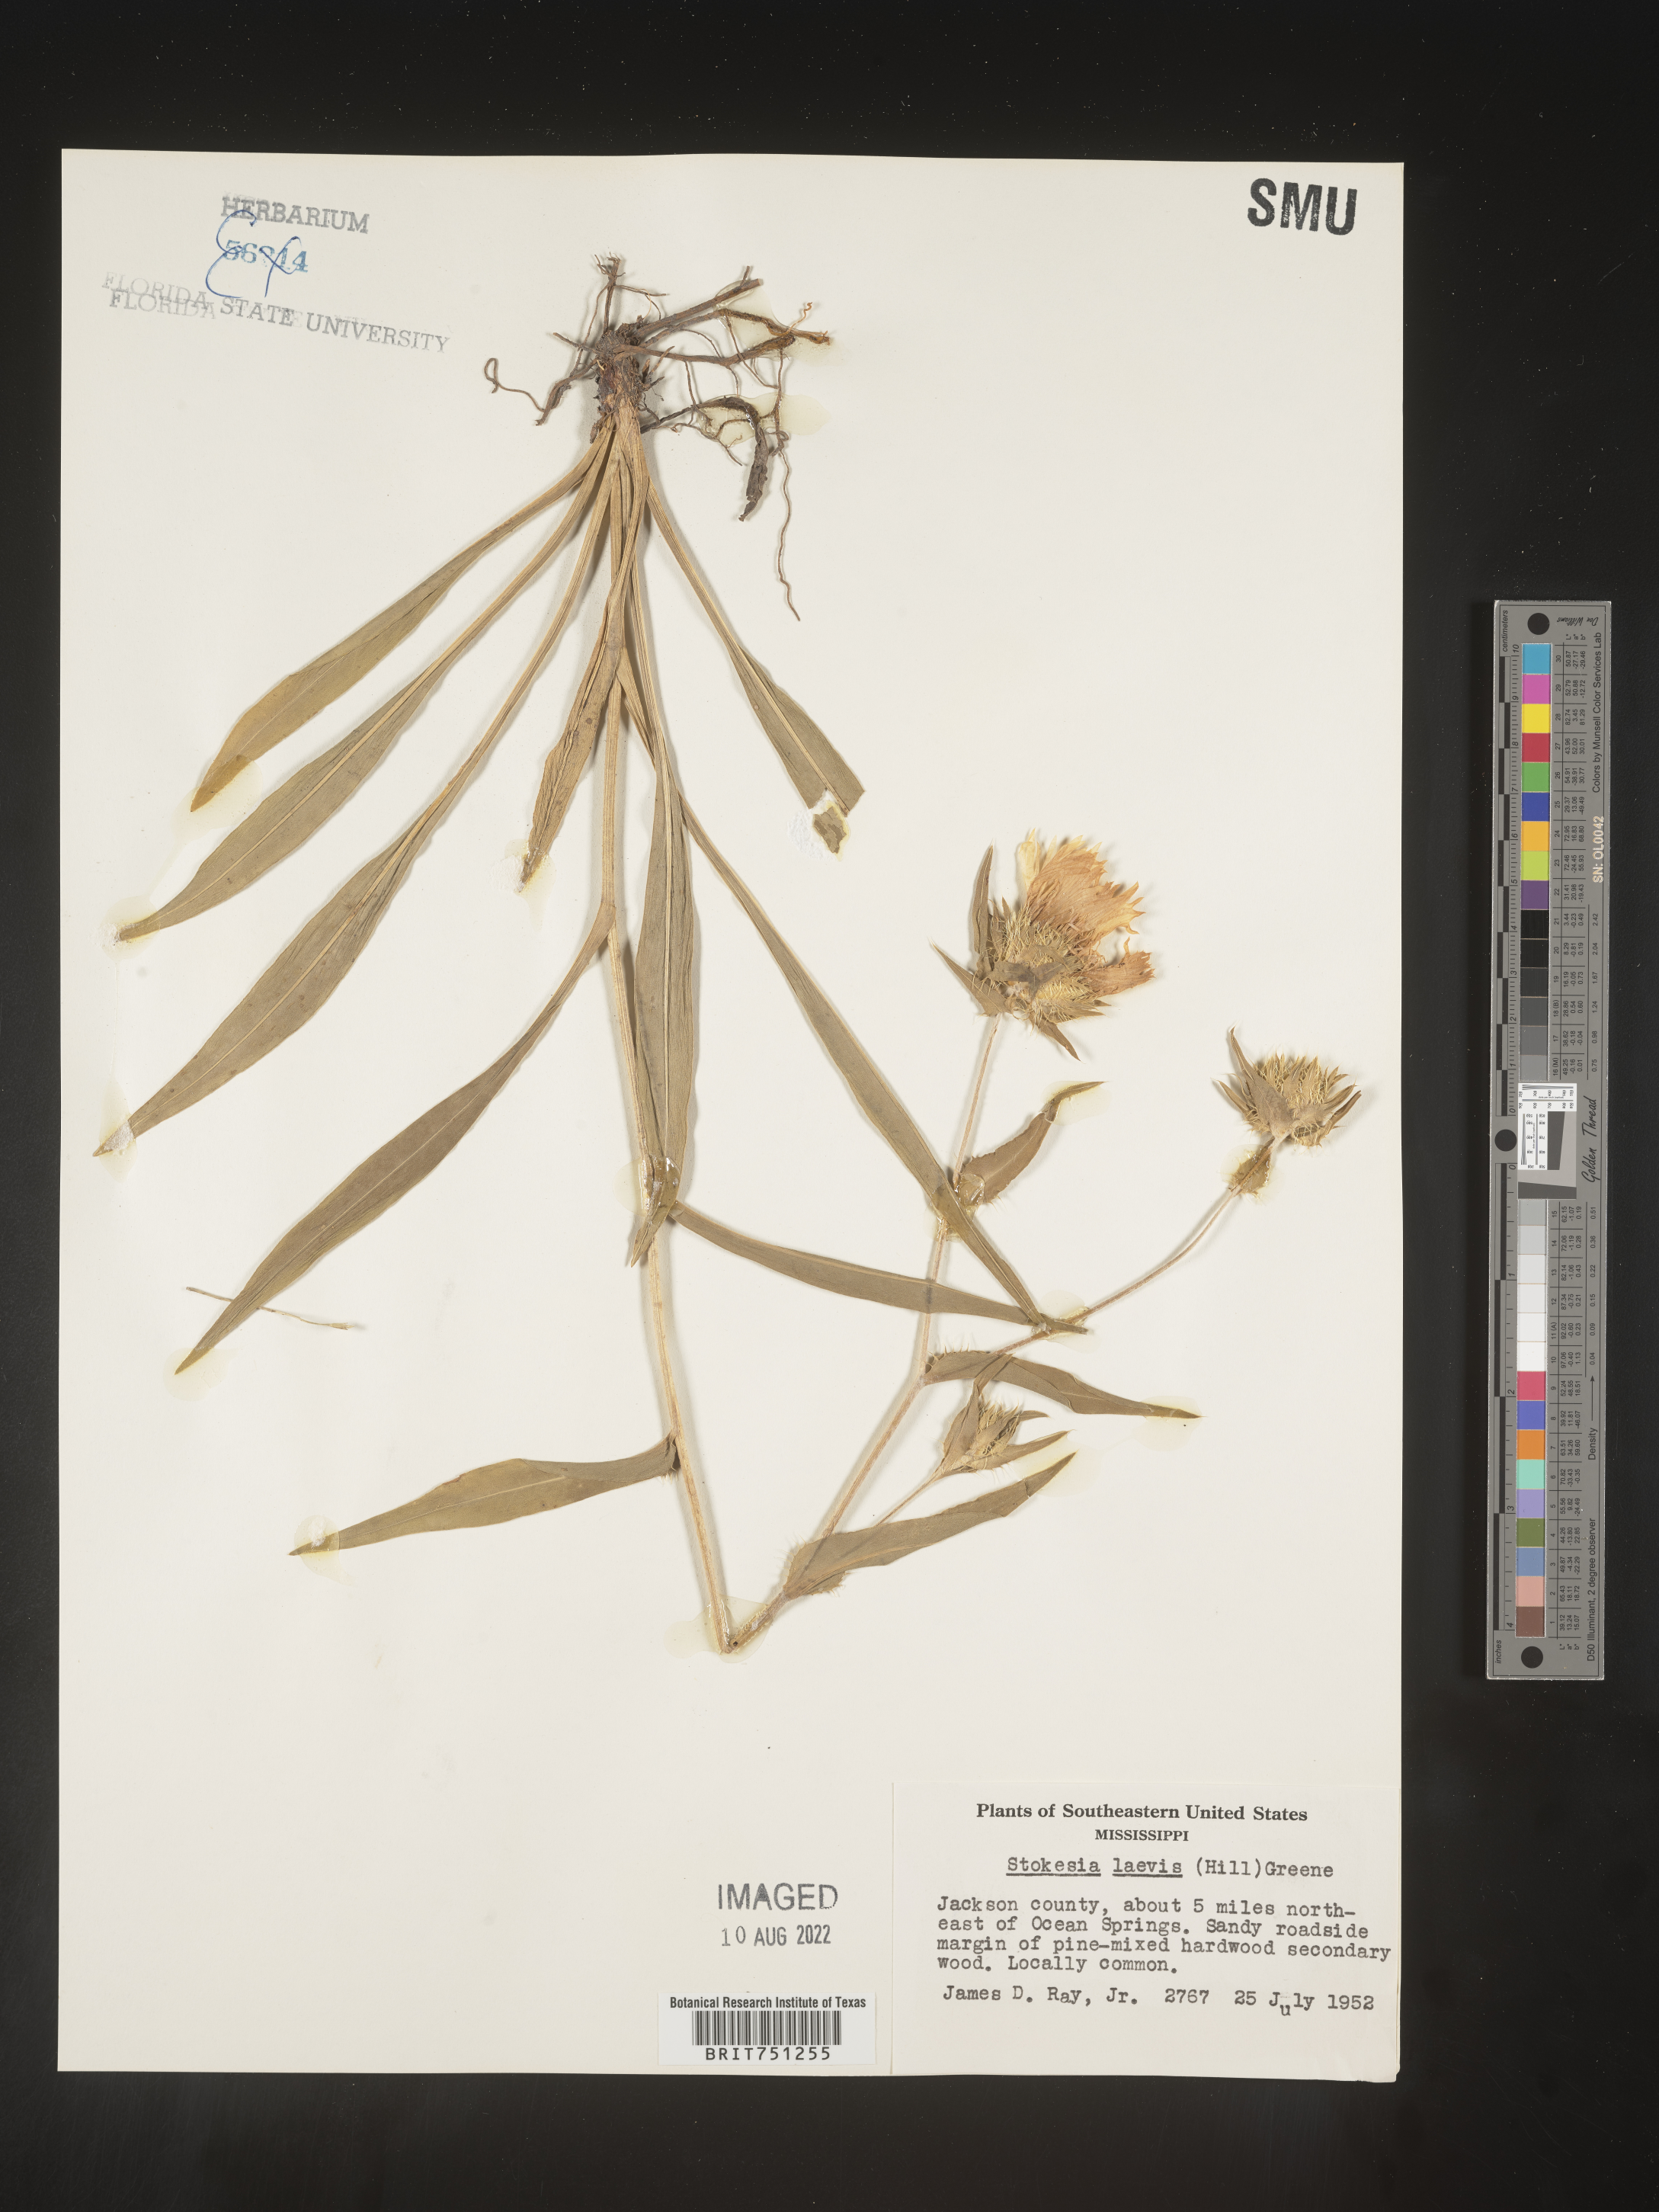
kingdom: Plantae
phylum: Tracheophyta
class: Magnoliopsida
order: Asterales
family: Asteraceae
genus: Stokesia
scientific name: Stokesia
